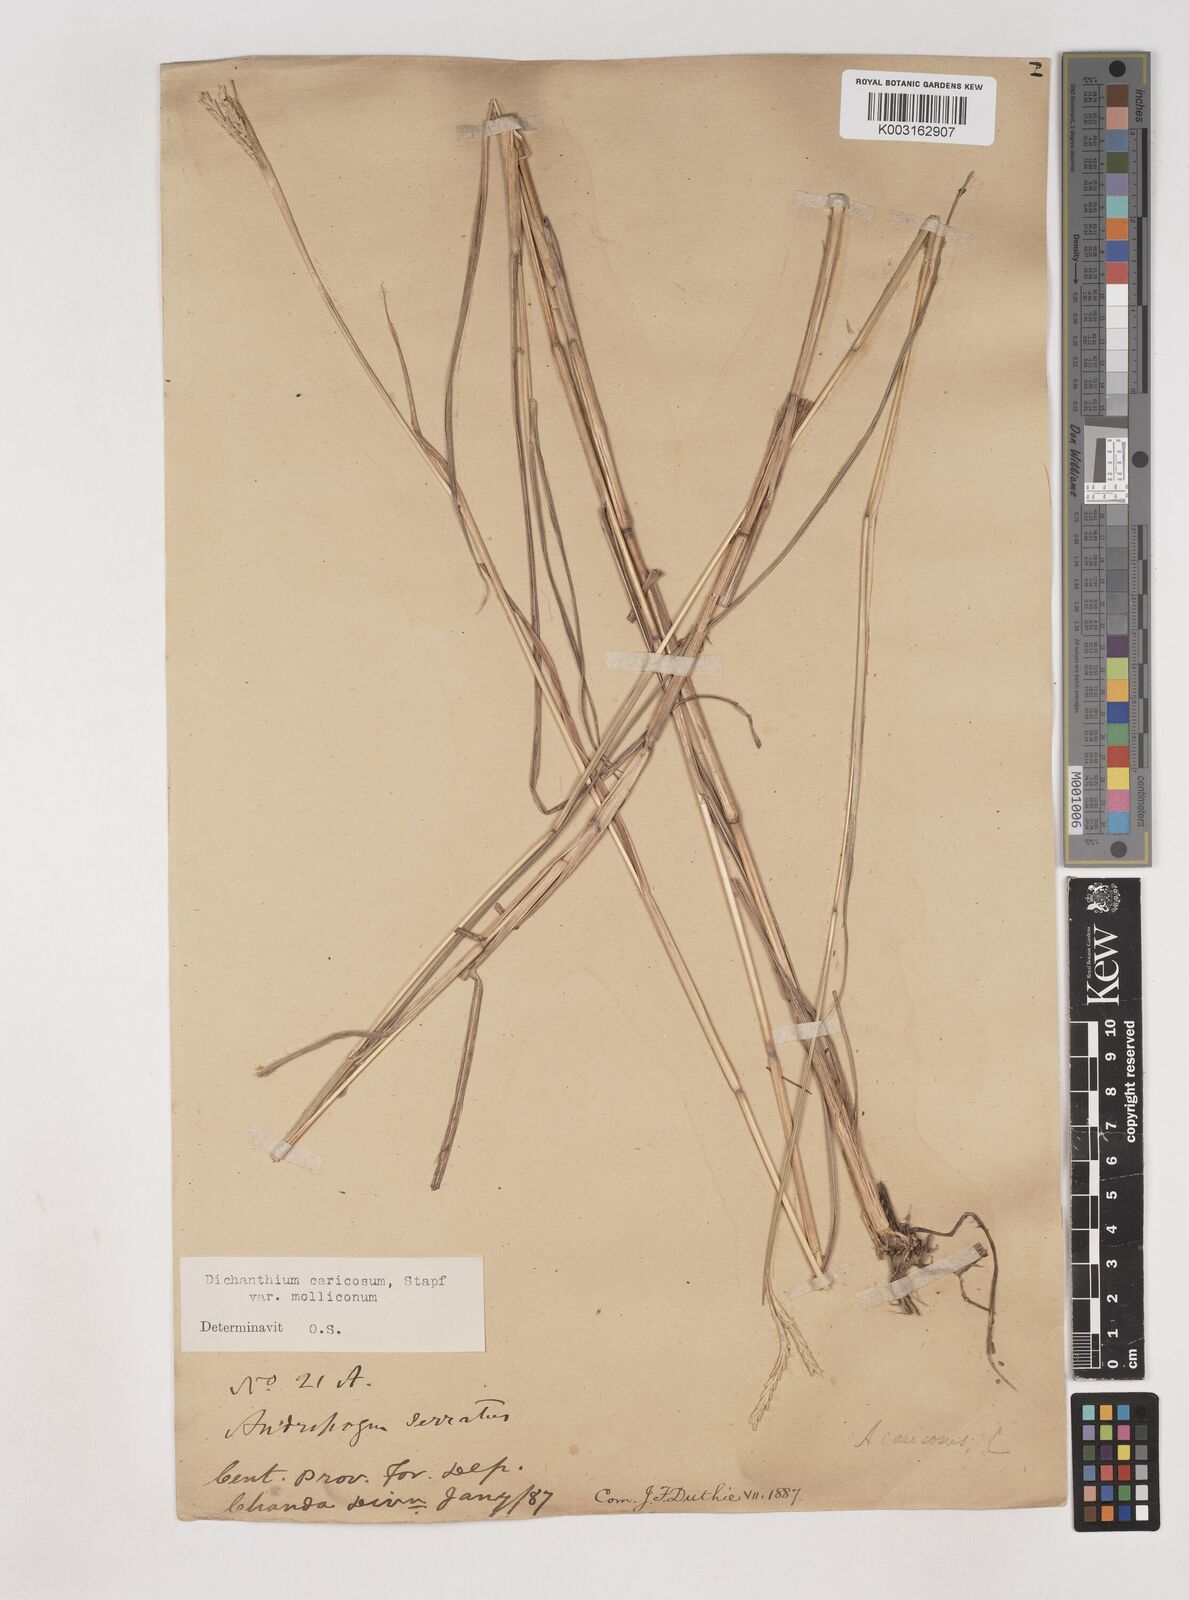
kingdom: Plantae
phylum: Tracheophyta
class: Liliopsida
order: Poales
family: Poaceae
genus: Dichanthium
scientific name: Dichanthium aristatum
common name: Angleton bluestem
